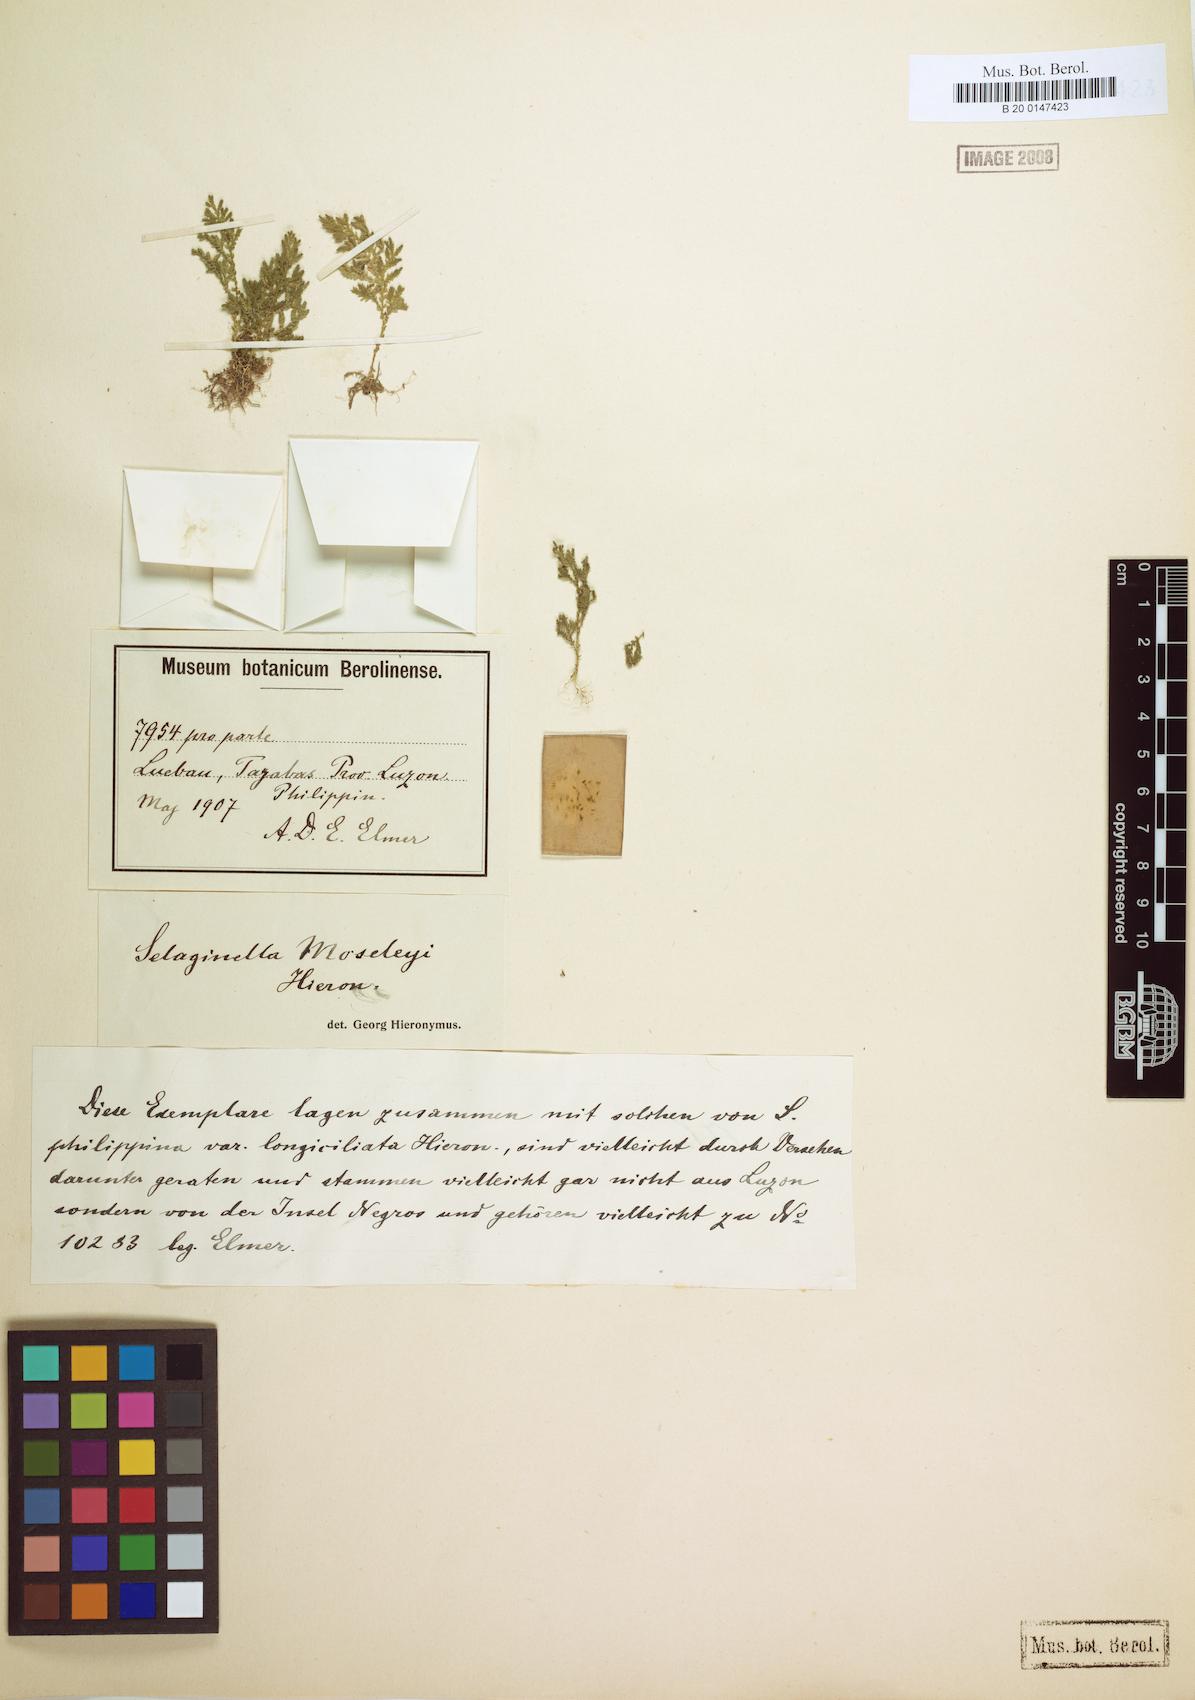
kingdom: Plantae
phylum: Tracheophyta
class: Lycopodiopsida
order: Selaginellales
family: Selaginellaceae
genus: Selaginella
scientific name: Selaginella philippsiana
